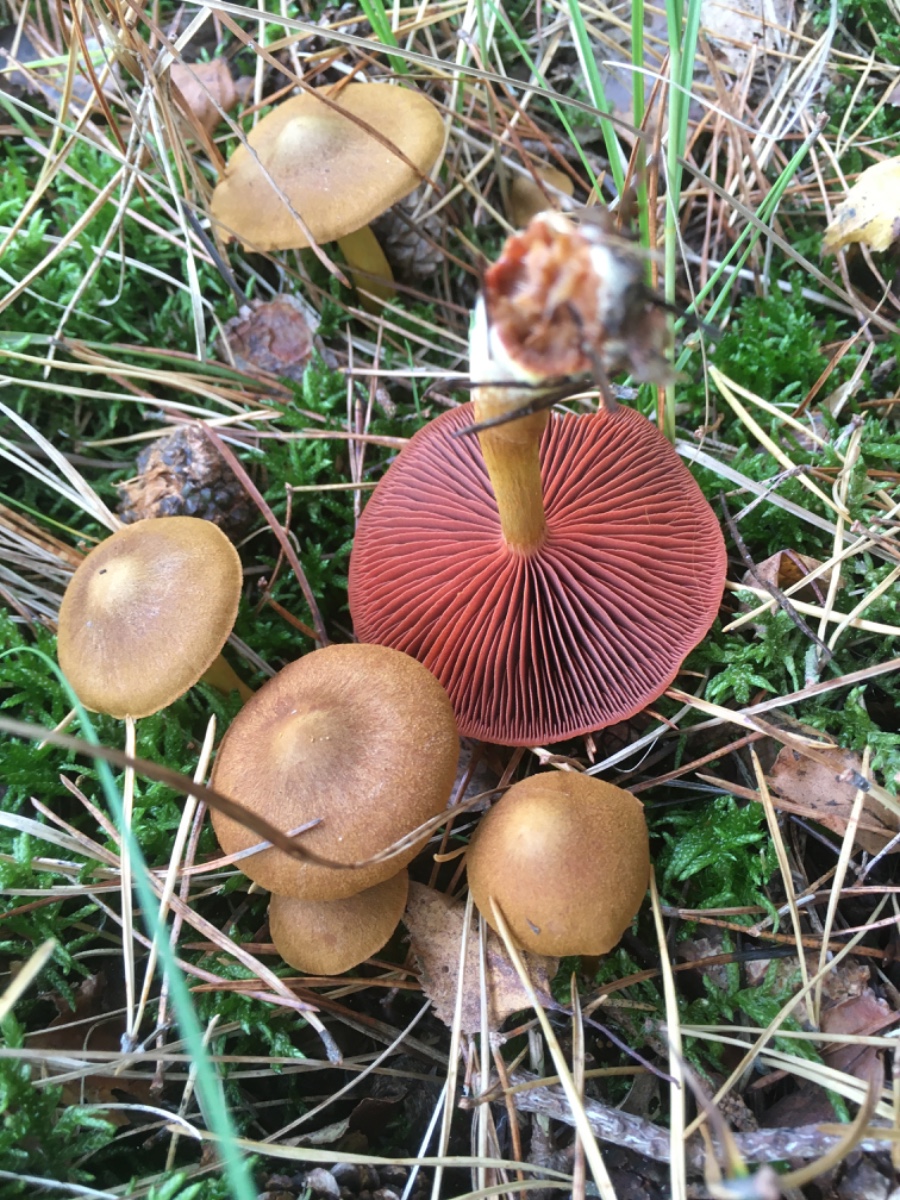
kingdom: Fungi
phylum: Basidiomycota
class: Agaricomycetes
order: Agaricales
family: Cortinariaceae
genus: Cortinarius
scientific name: Cortinarius
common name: cinnoberbladet slørhat
